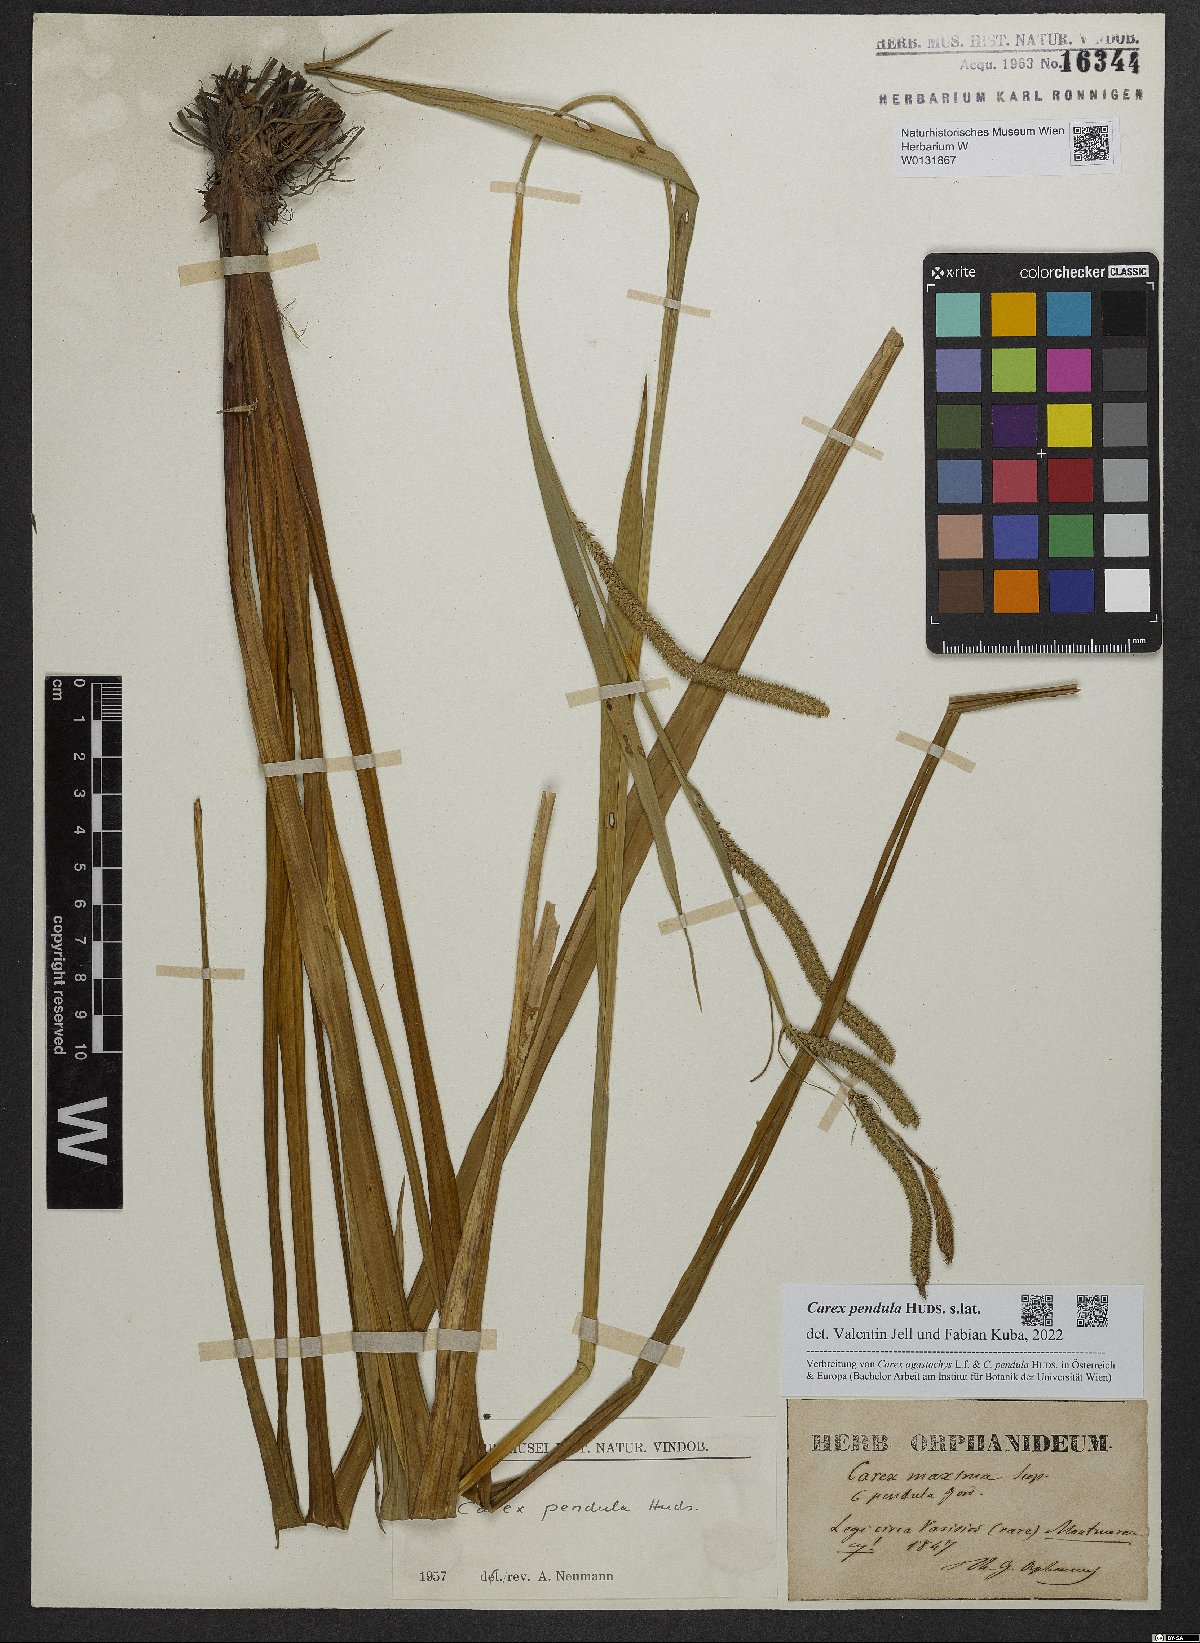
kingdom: Plantae
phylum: Tracheophyta
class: Liliopsida
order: Poales
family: Cyperaceae
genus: Carex
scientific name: Carex pendula
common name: Pendulous sedge
